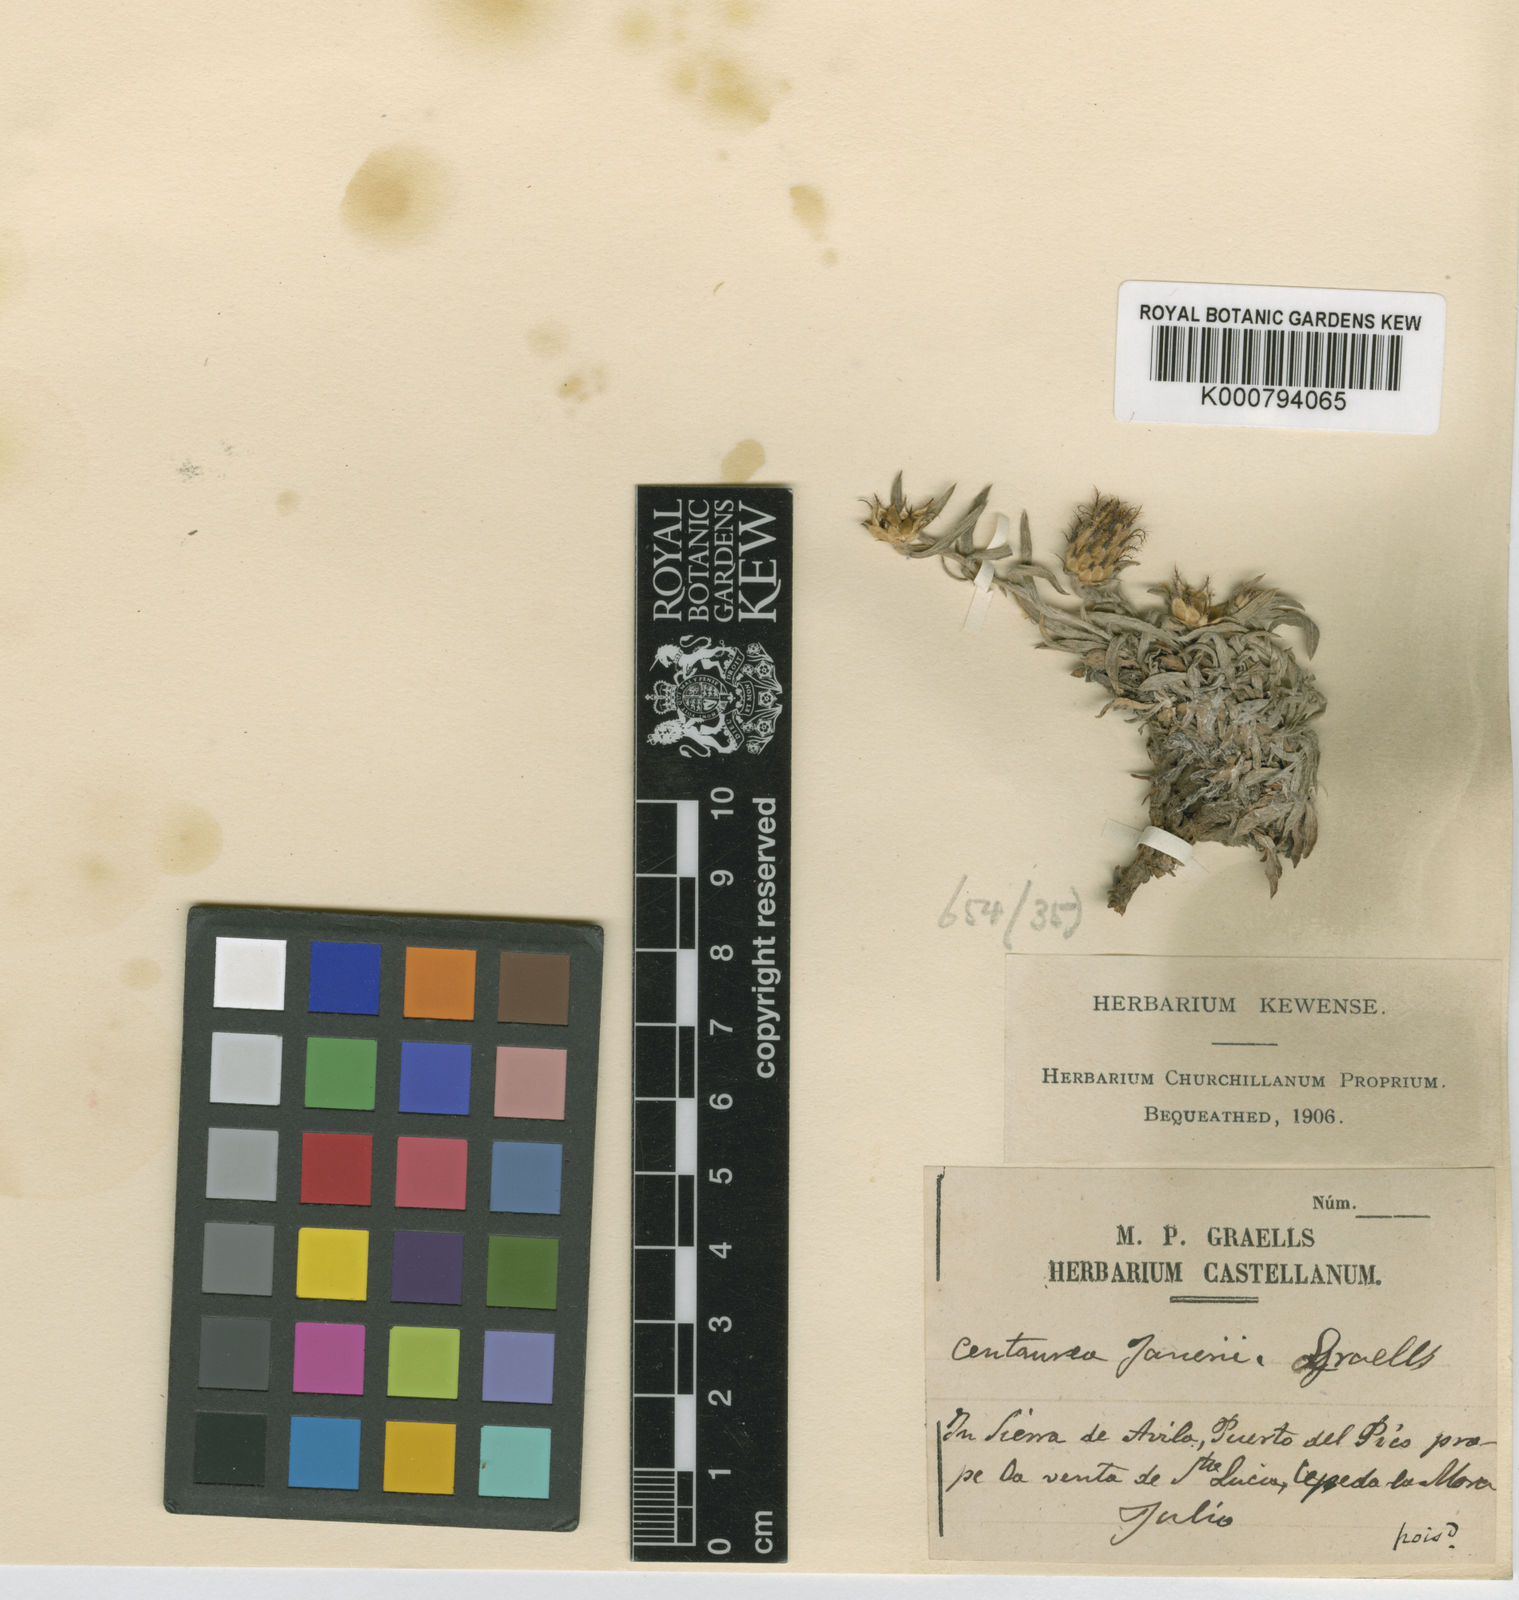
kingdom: Plantae
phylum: Tracheophyta
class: Magnoliopsida
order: Asterales
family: Asteraceae
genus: Centaurea
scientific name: Centaurea janeri
